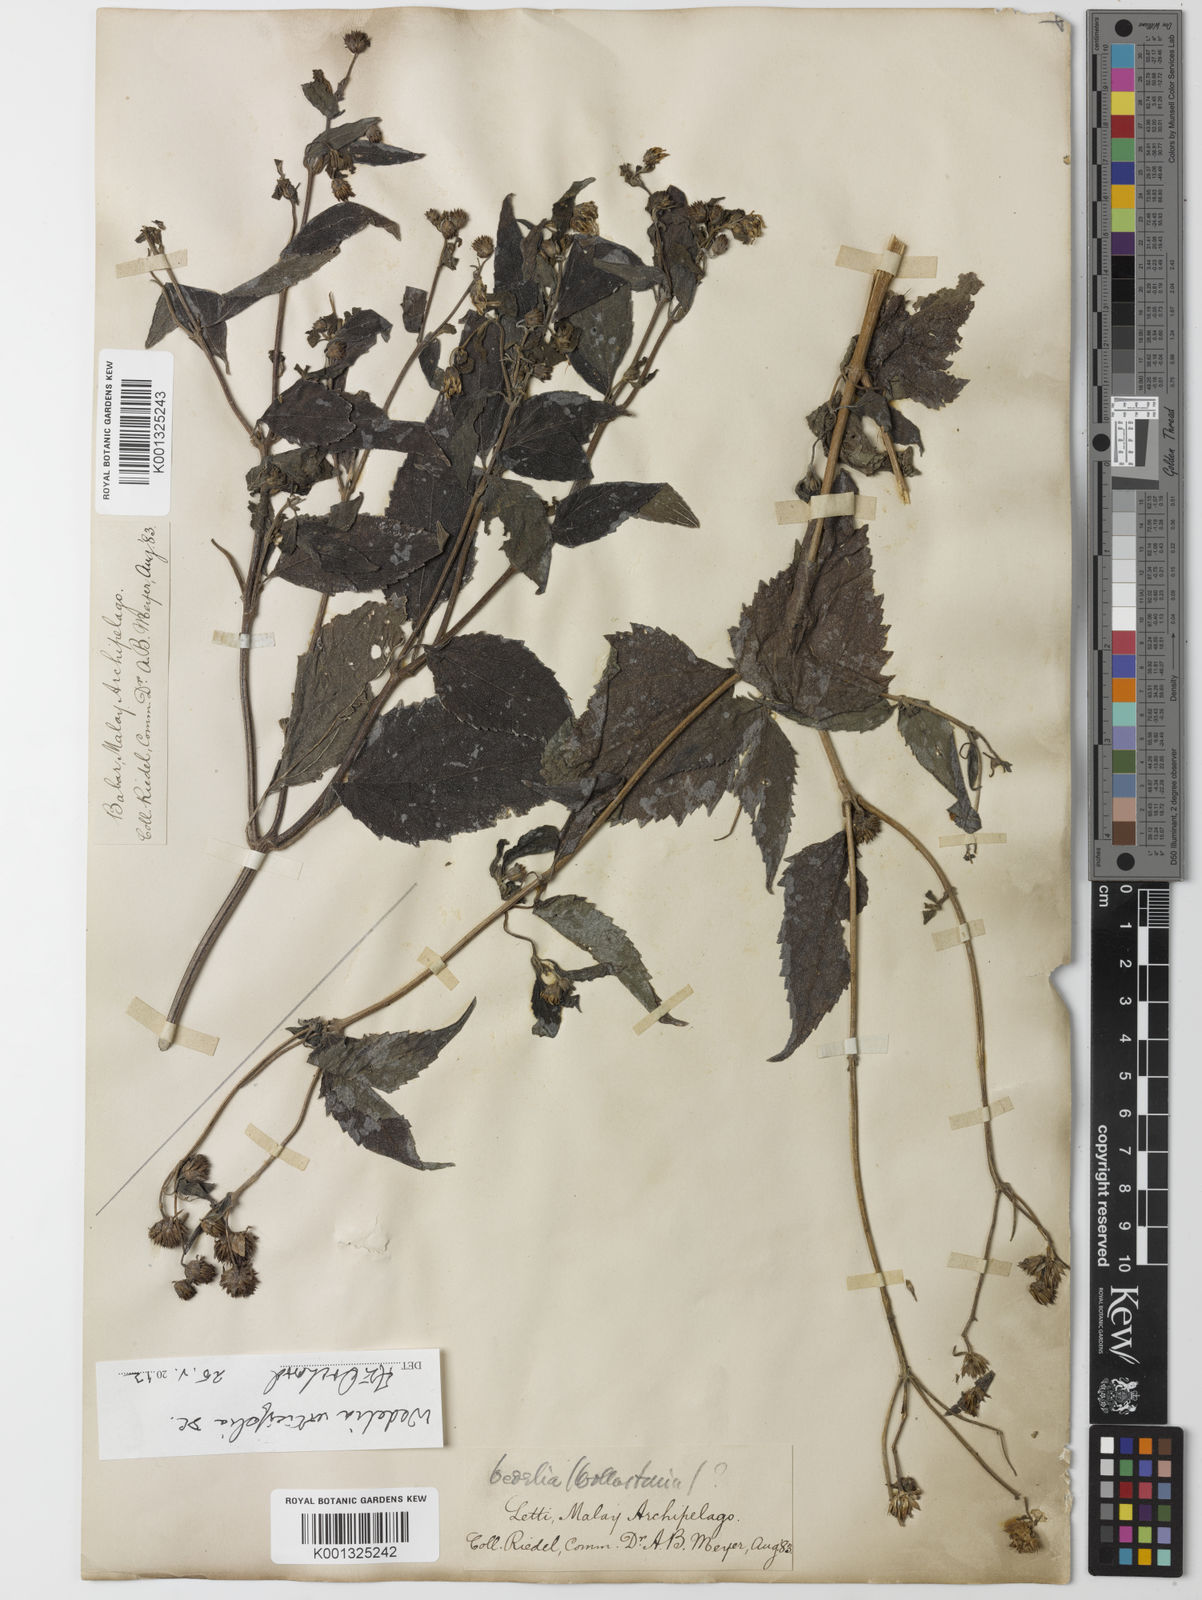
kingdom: Plantae
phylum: Tracheophyta
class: Magnoliopsida
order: Asterales
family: Asteraceae
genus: Lipoblepharis
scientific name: Lipoblepharis urticifolia
